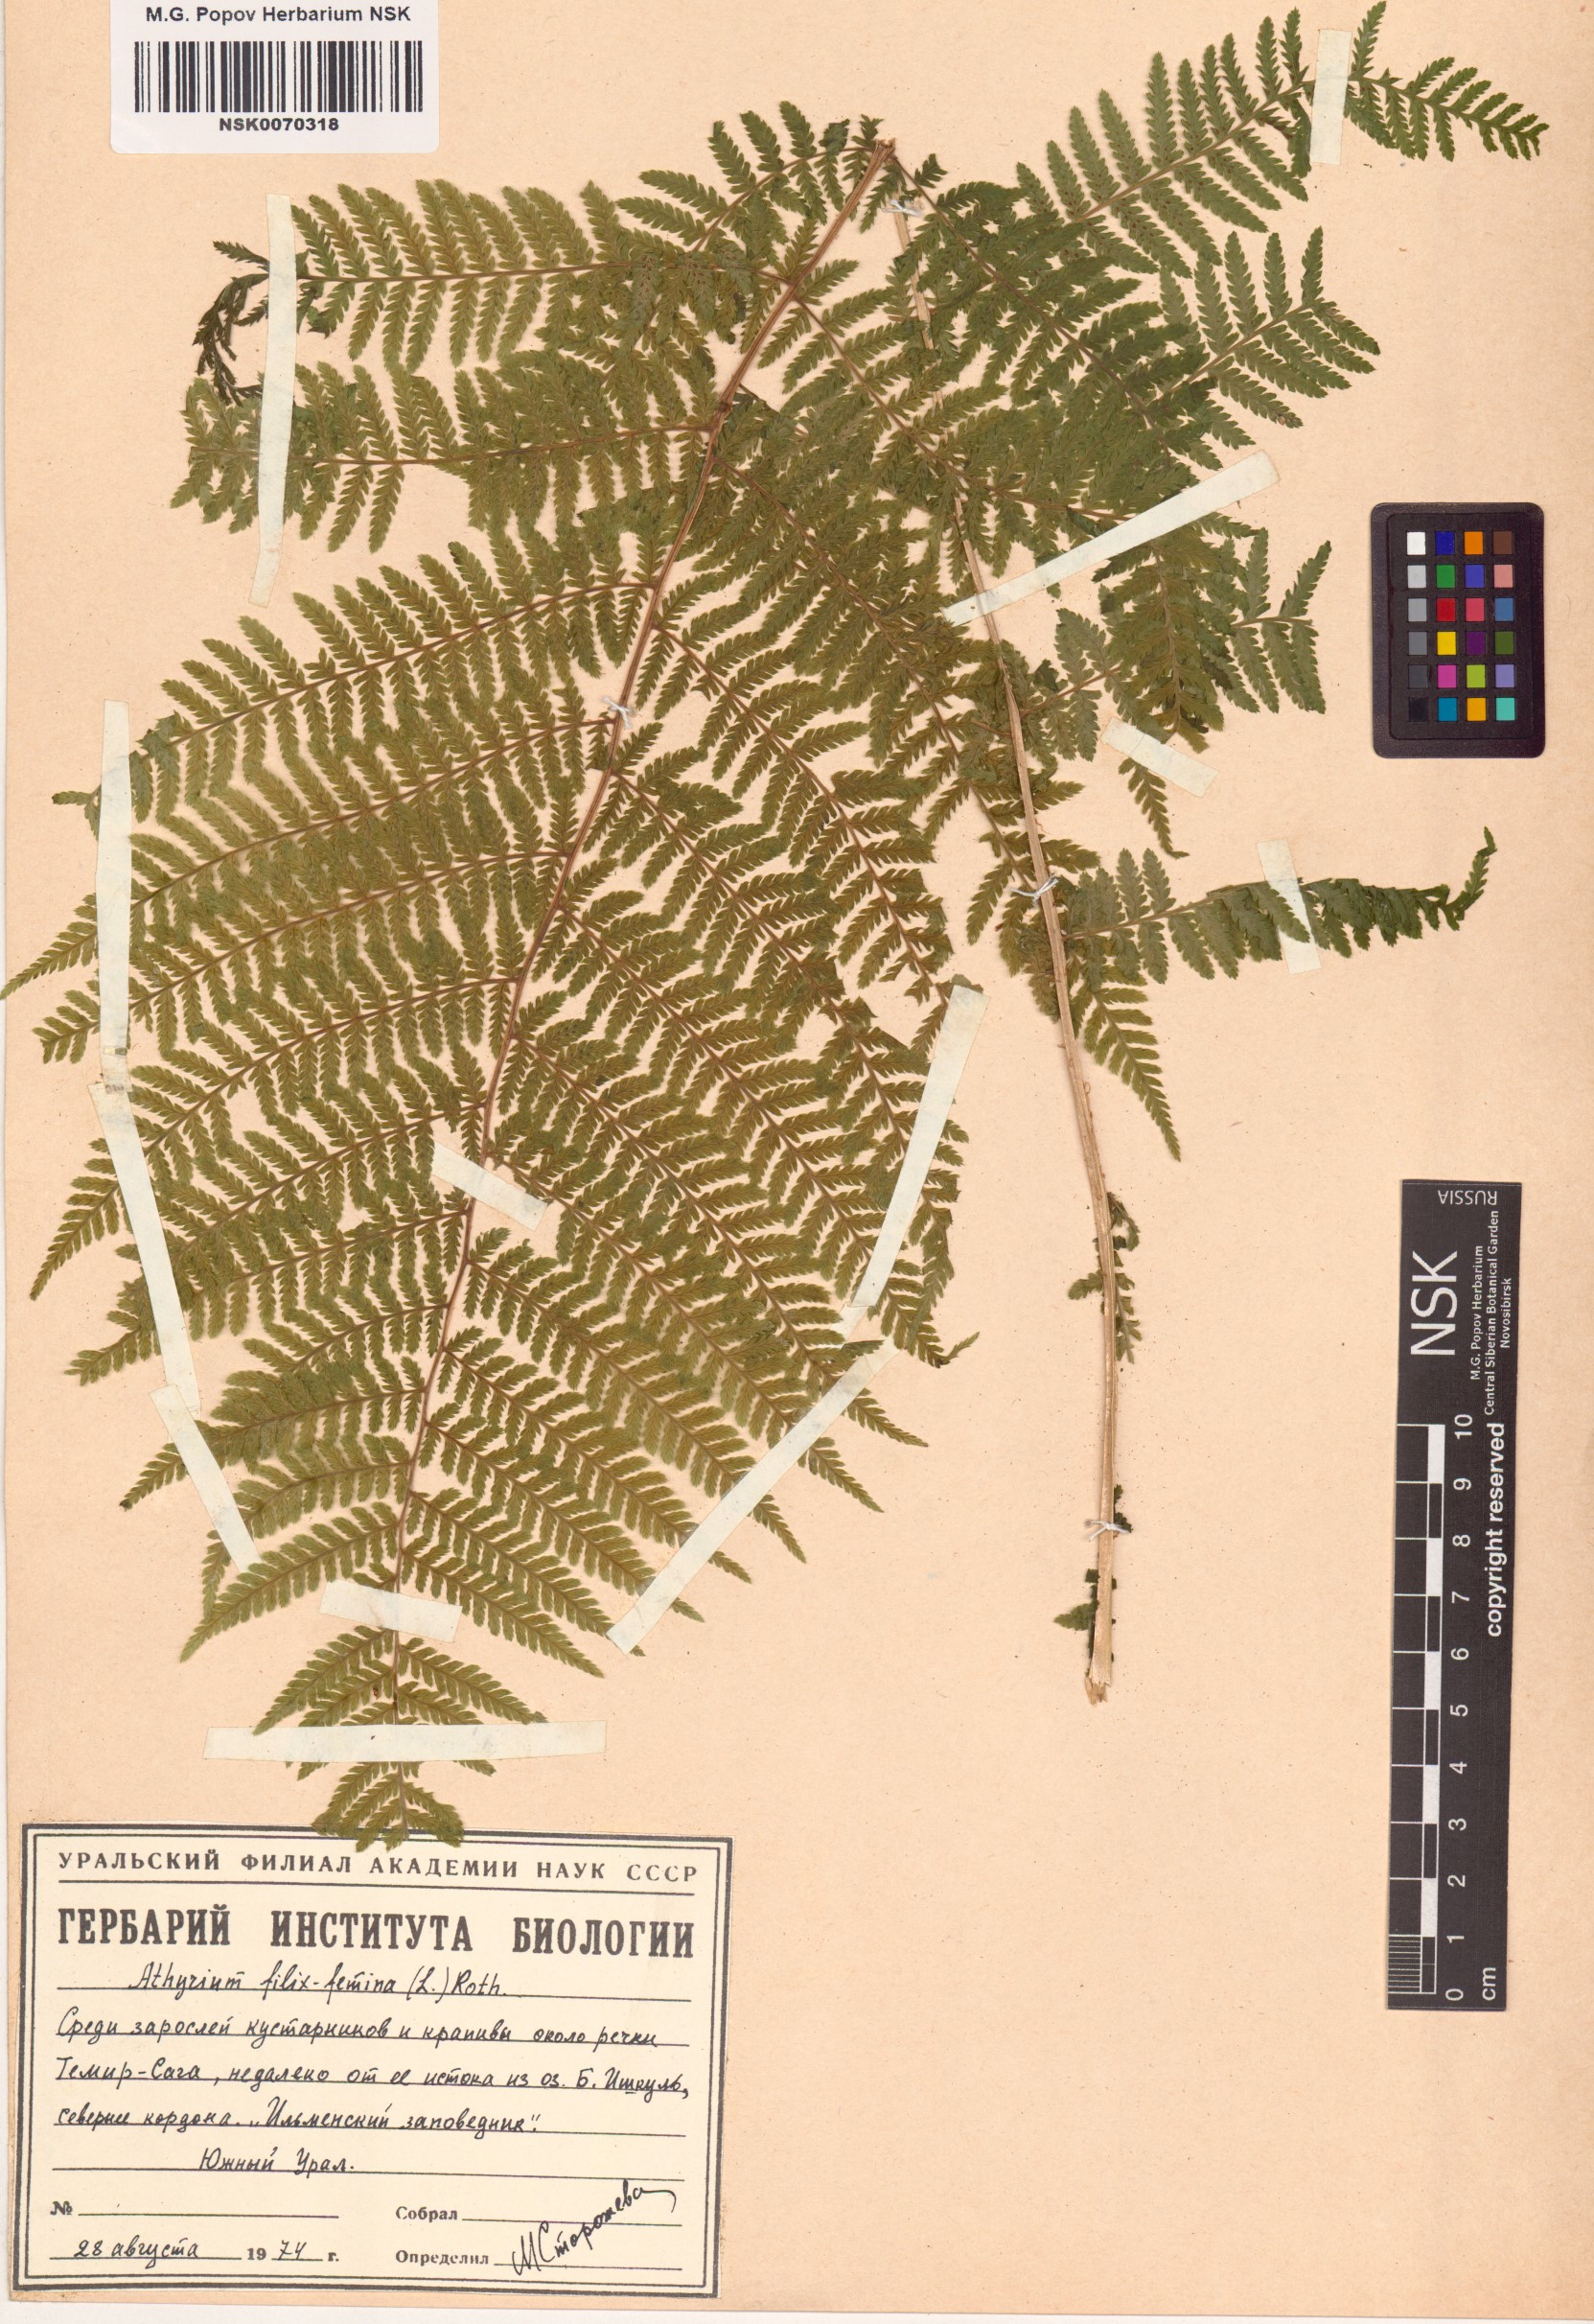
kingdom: Plantae
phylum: Tracheophyta
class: Polypodiopsida
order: Polypodiales
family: Athyriaceae
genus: Athyrium
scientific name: Athyrium filix-femina
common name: Lady fern
